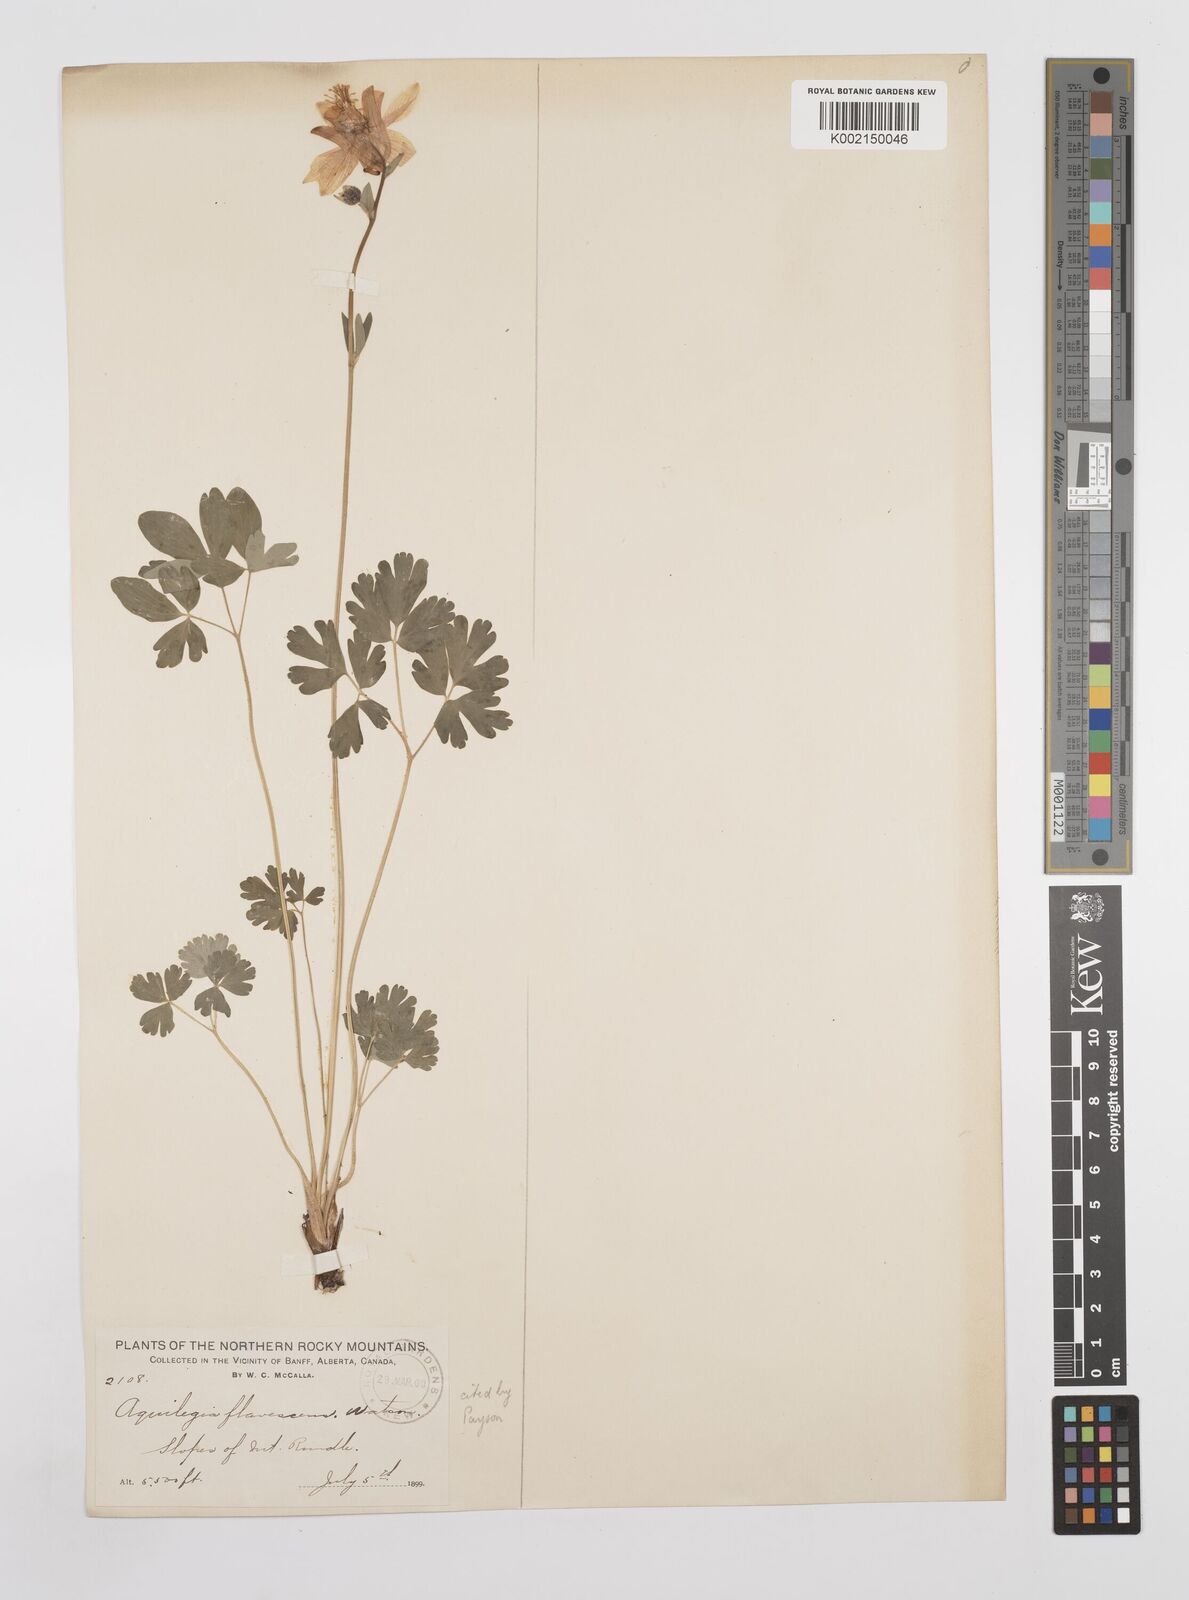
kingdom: Plantae
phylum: Tracheophyta
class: Magnoliopsida
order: Ranunculales
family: Ranunculaceae
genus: Aquilegia
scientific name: Aquilegia flavescens
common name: Yellow columbine
